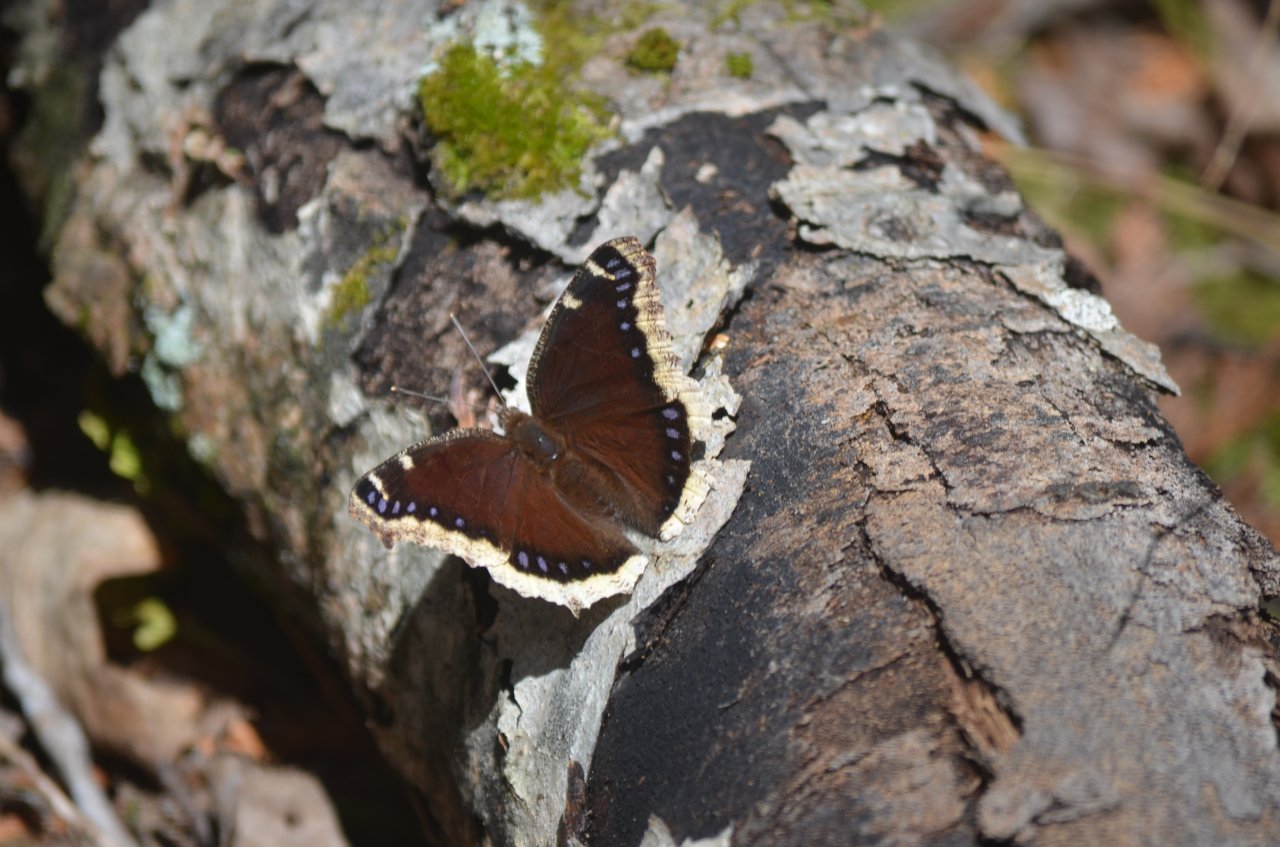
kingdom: Animalia
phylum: Arthropoda
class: Insecta
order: Lepidoptera
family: Nymphalidae
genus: Nymphalis
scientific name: Nymphalis antiopa
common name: Mourning Cloak
